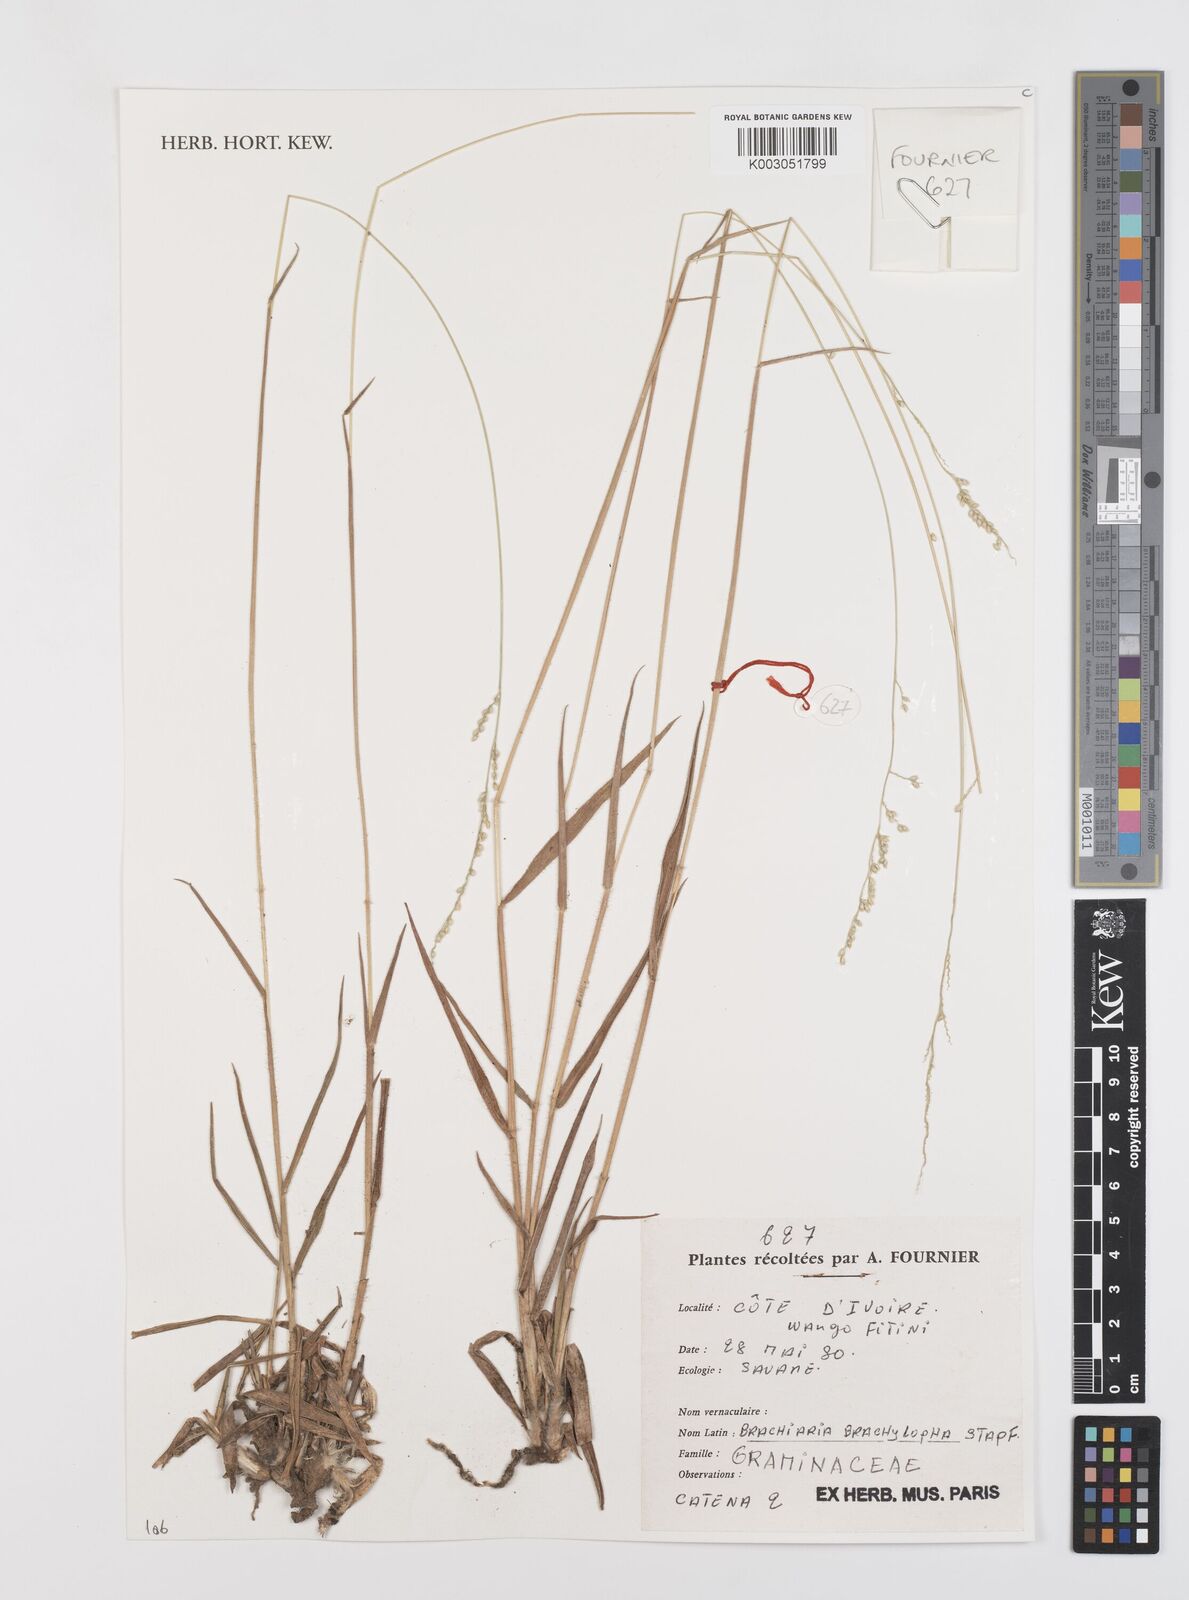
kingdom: Plantae
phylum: Tracheophyta
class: Liliopsida
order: Poales
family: Poaceae
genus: Urochloa
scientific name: Urochloa serrata
